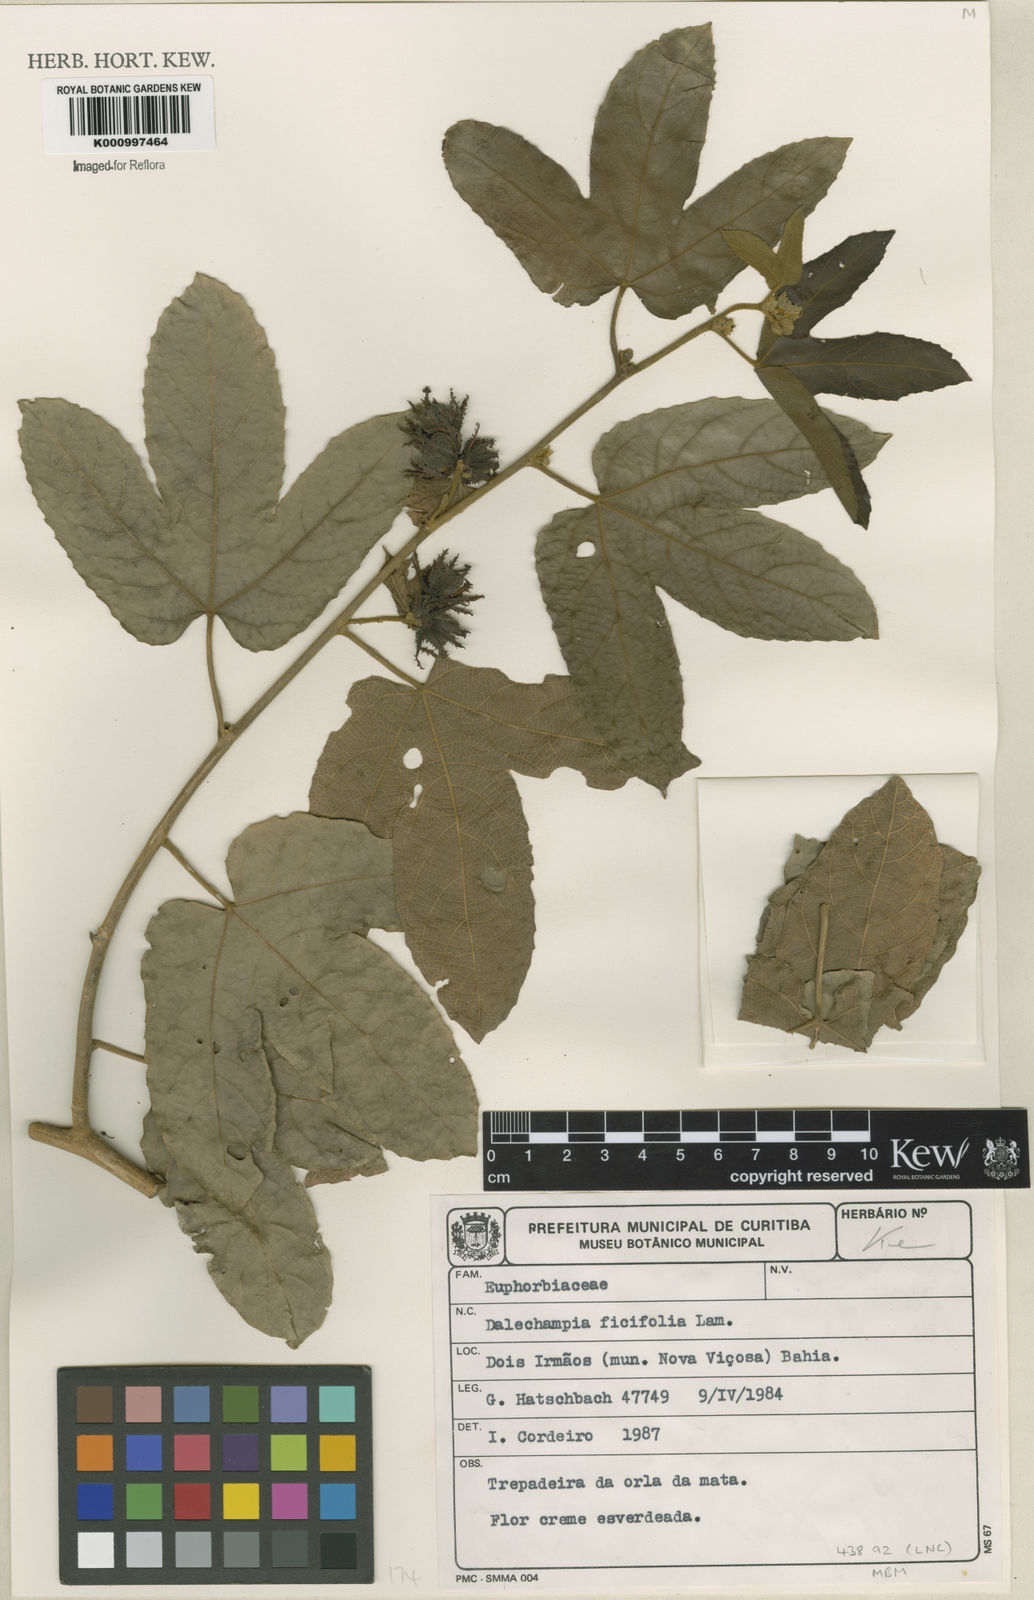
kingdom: Plantae
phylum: Tracheophyta
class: Magnoliopsida
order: Malpighiales
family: Euphorbiaceae
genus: Dalechampia
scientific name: Dalechampia ficifolia
